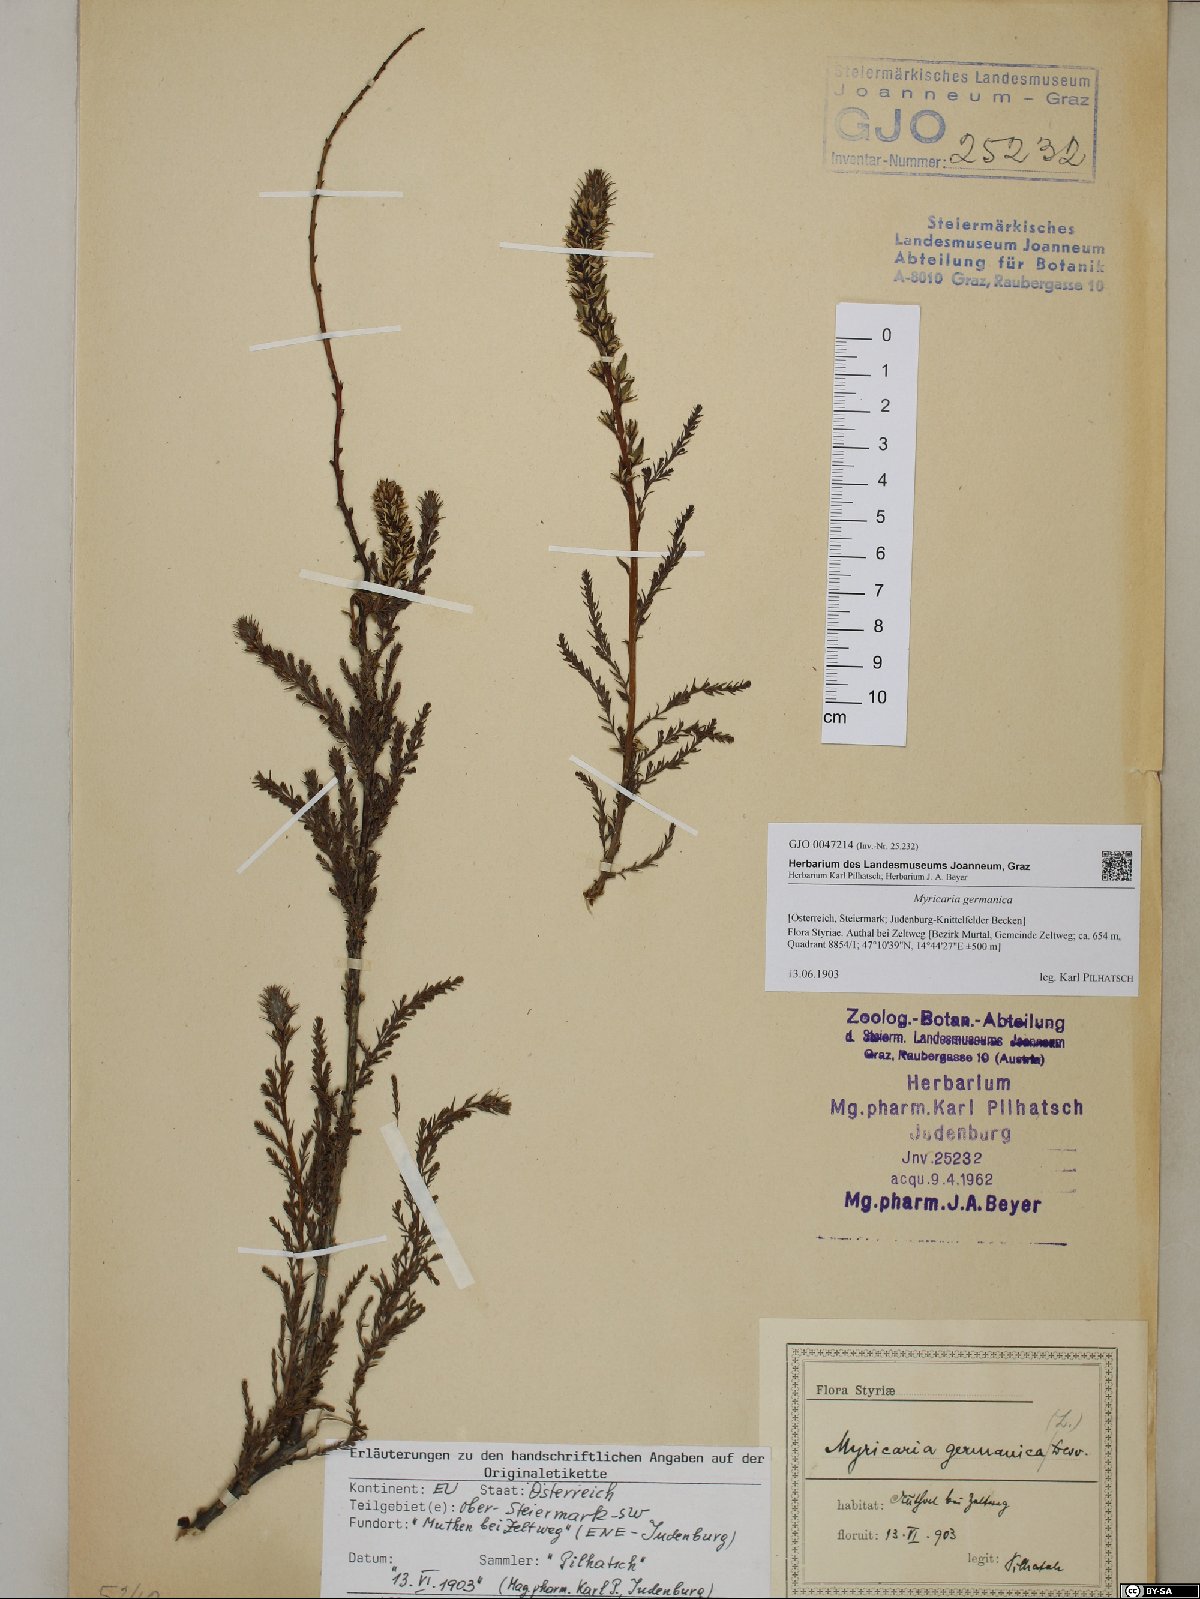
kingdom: Plantae
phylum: Tracheophyta
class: Magnoliopsida
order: Caryophyllales
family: Tamaricaceae
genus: Myricaria
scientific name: Myricaria germanica
